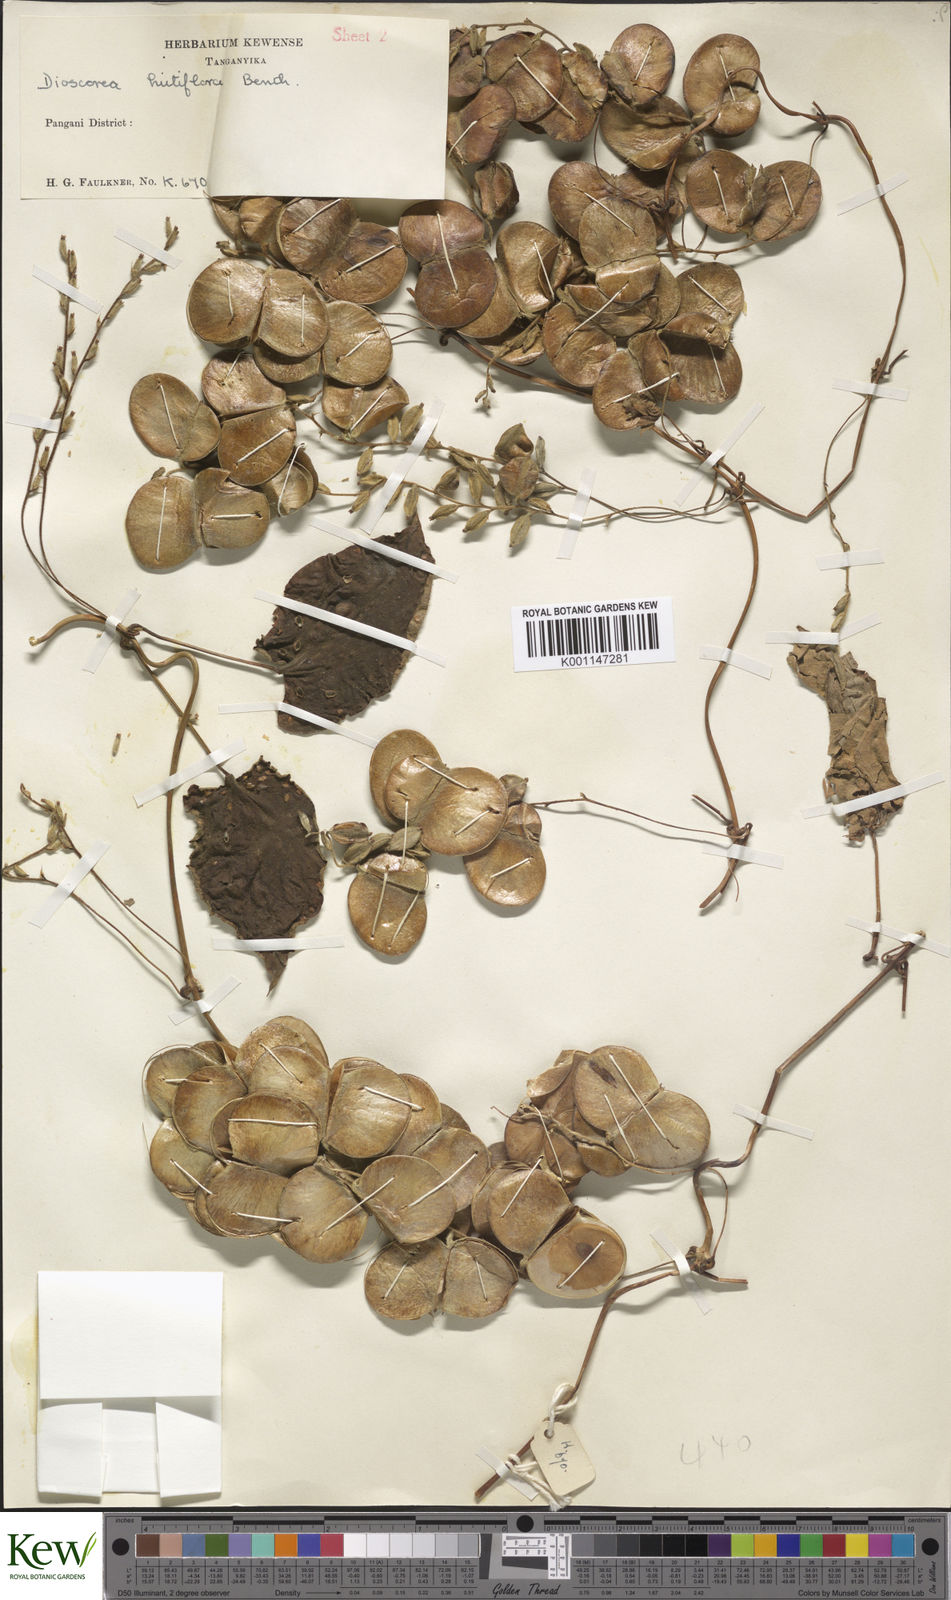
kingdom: Plantae
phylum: Tracheophyta
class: Liliopsida
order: Dioscoreales
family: Dioscoreaceae
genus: Dioscorea
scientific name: Dioscorea hirtiflora
